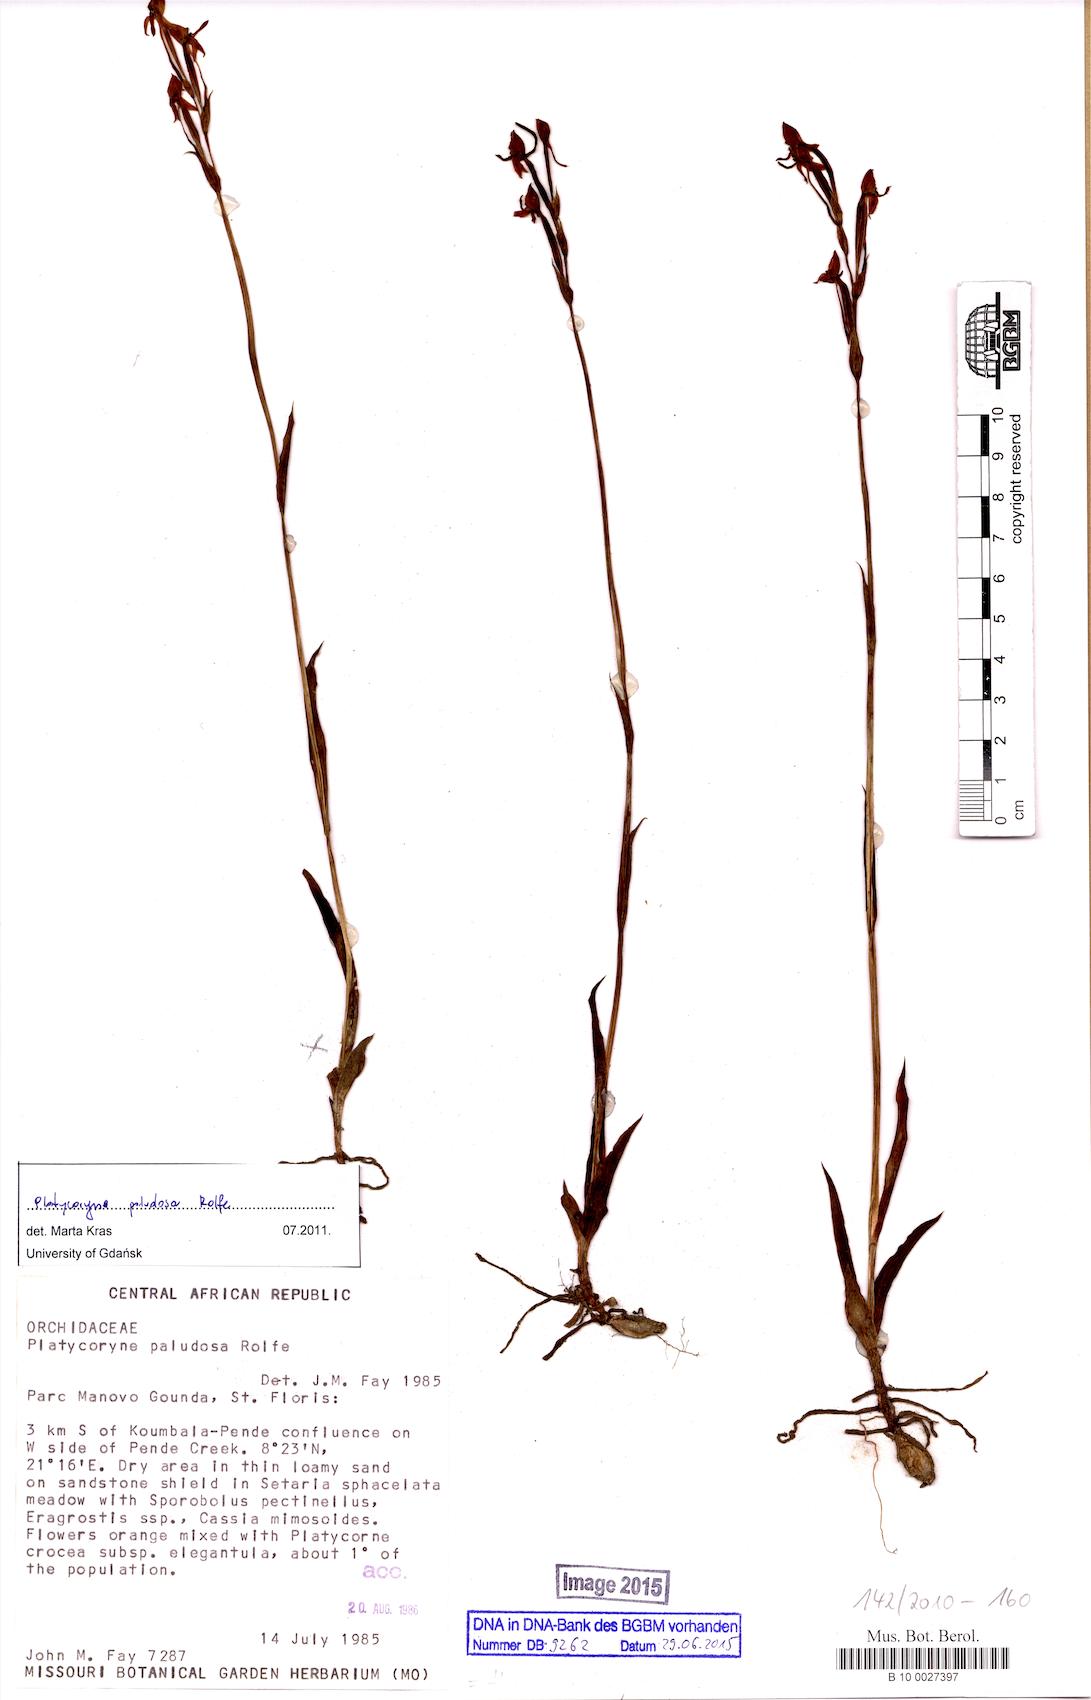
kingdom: Plantae
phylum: Tracheophyta
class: Liliopsida
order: Asparagales
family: Orchidaceae
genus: Platycoryne
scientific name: Platycoryne paludosa
